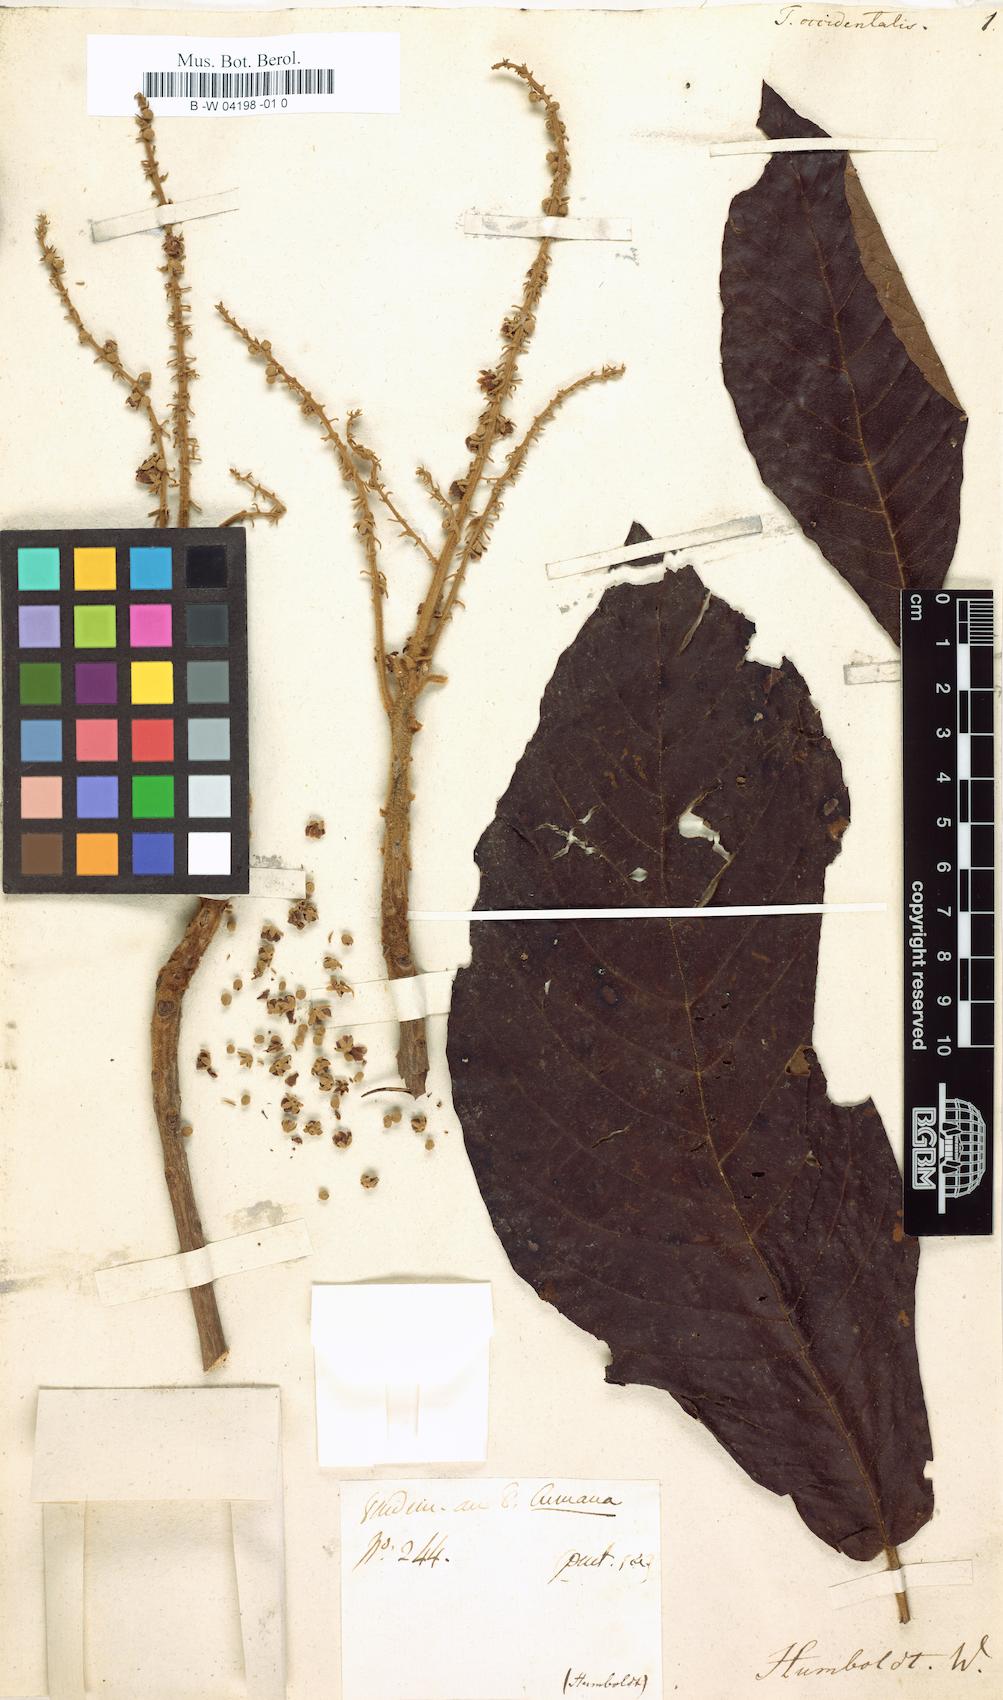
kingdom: Plantae
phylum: Tracheophyta
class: Magnoliopsida
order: Ericales
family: Clethraceae
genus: Clethra
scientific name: Clethra occidentalis
